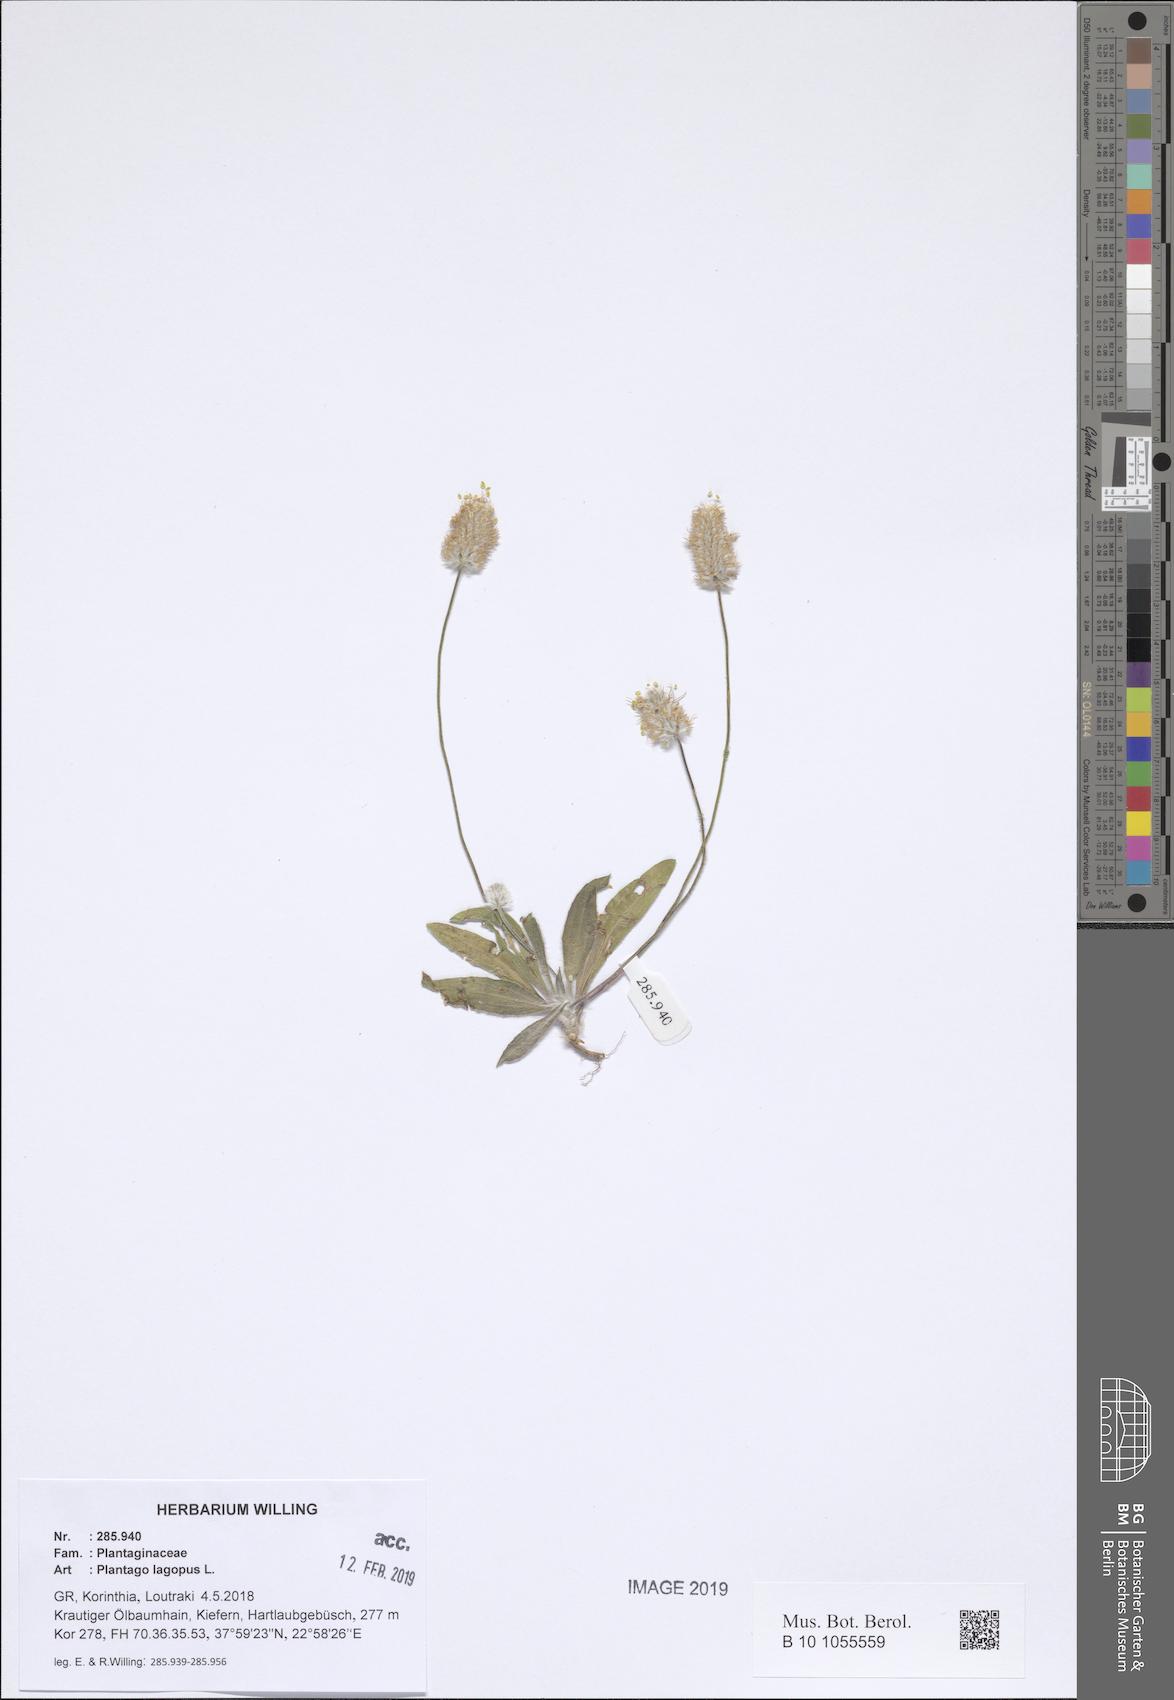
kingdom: Plantae
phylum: Tracheophyta
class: Magnoliopsida
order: Lamiales
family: Plantaginaceae
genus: Plantago
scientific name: Plantago lagopus
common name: Hare-foot plantain
